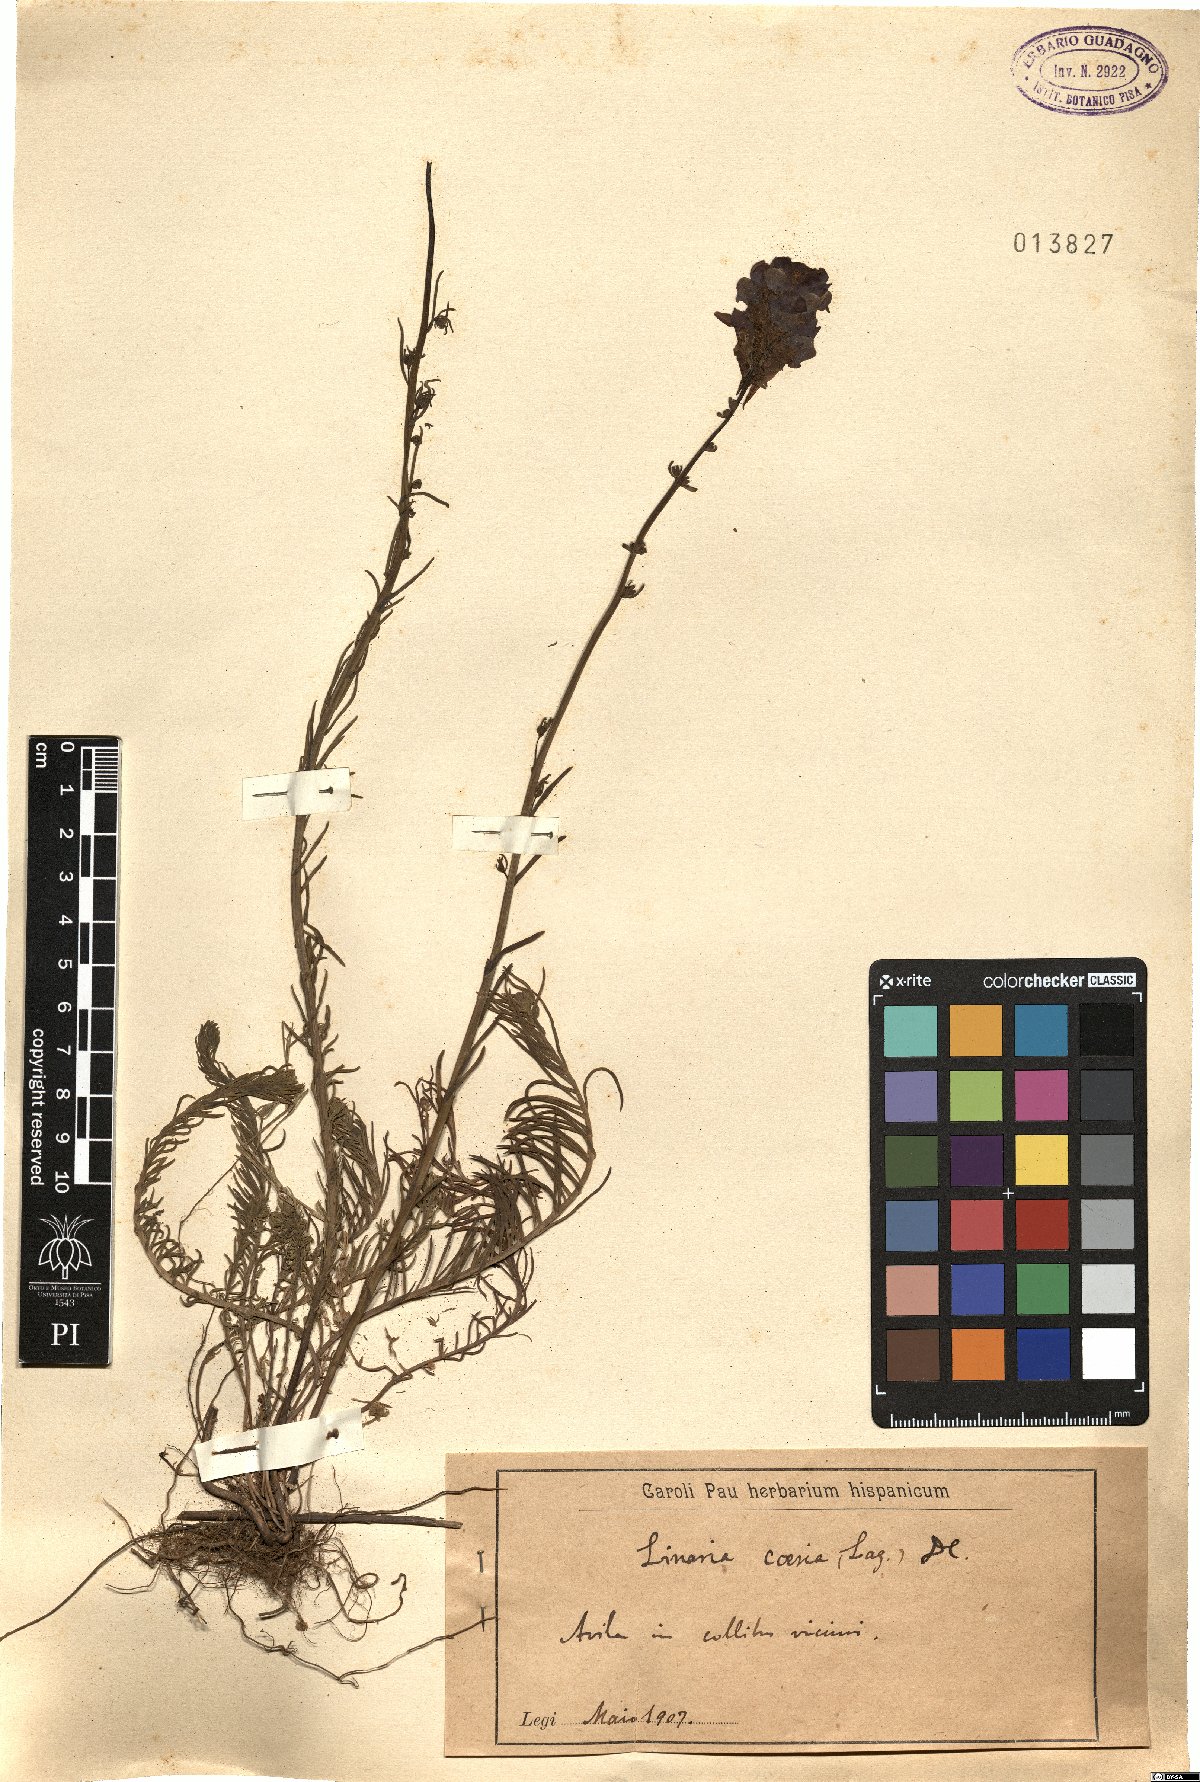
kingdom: Plantae
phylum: Tracheophyta
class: Magnoliopsida
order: Lamiales
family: Plantaginaceae
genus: Linaria
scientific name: Linaria caesia
